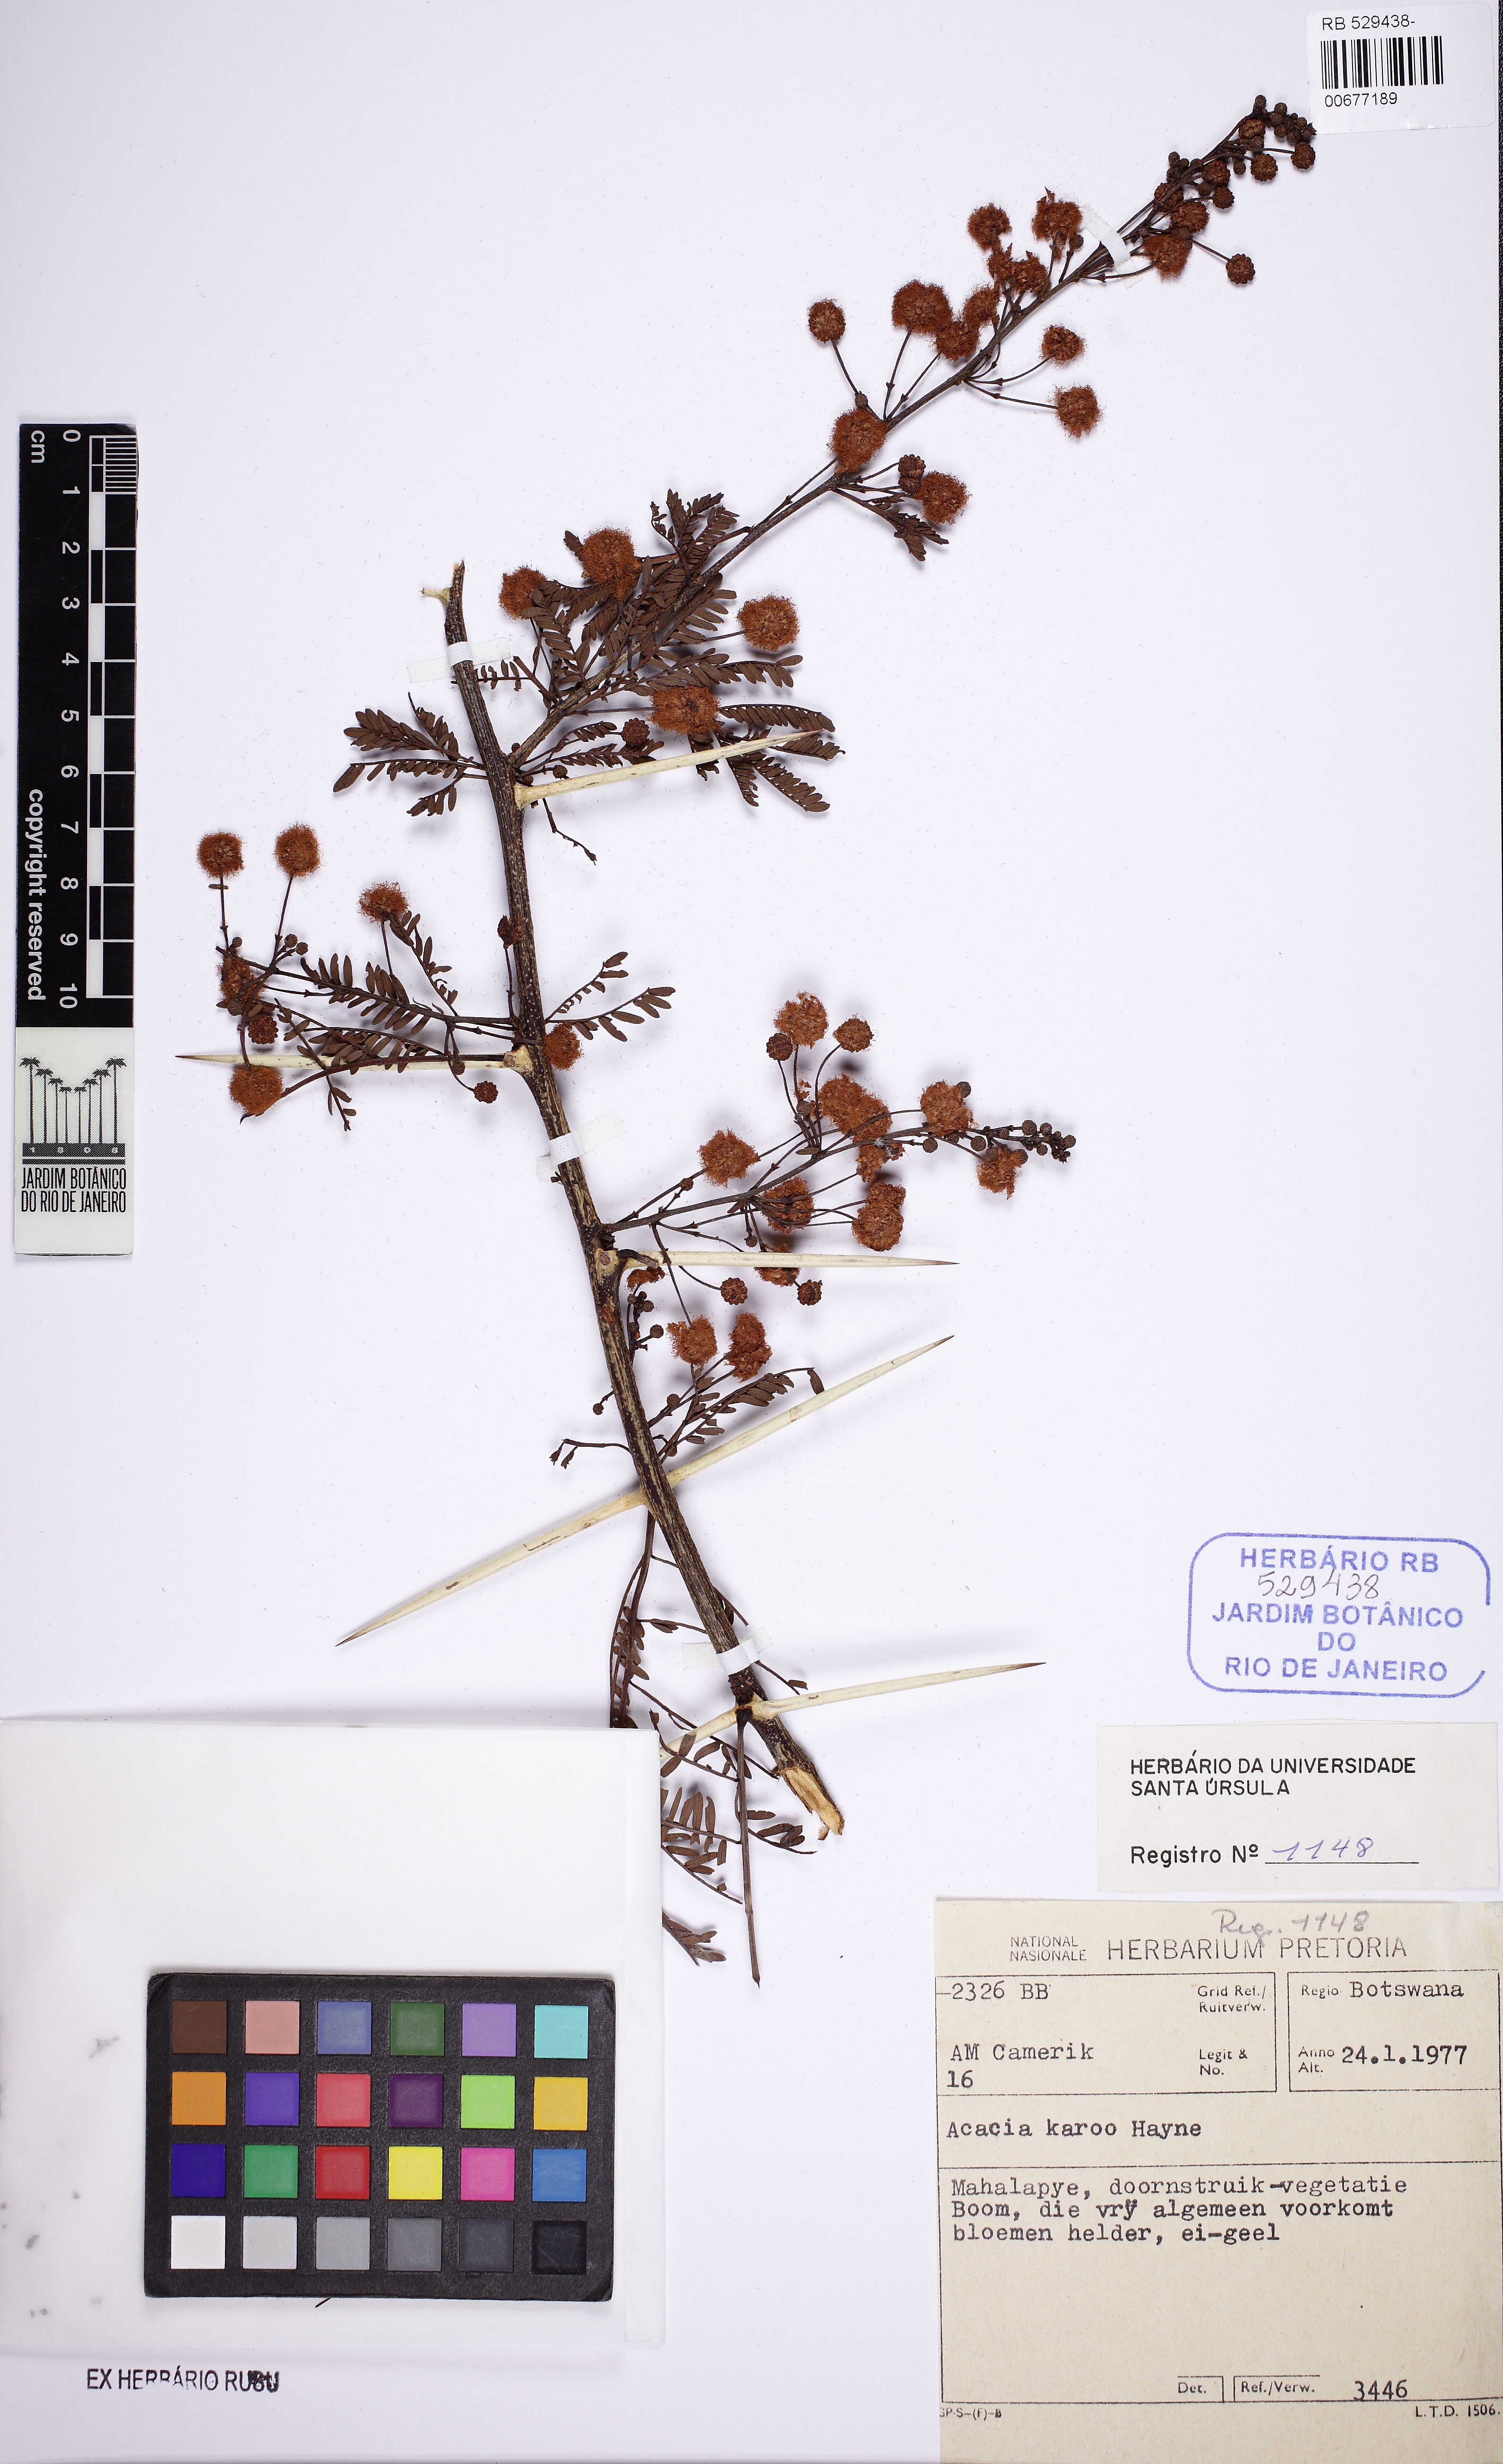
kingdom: Plantae
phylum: Tracheophyta
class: Magnoliopsida
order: Fabales
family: Fabaceae
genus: Vachellia
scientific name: Vachellia karroo
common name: Sweet thorn
